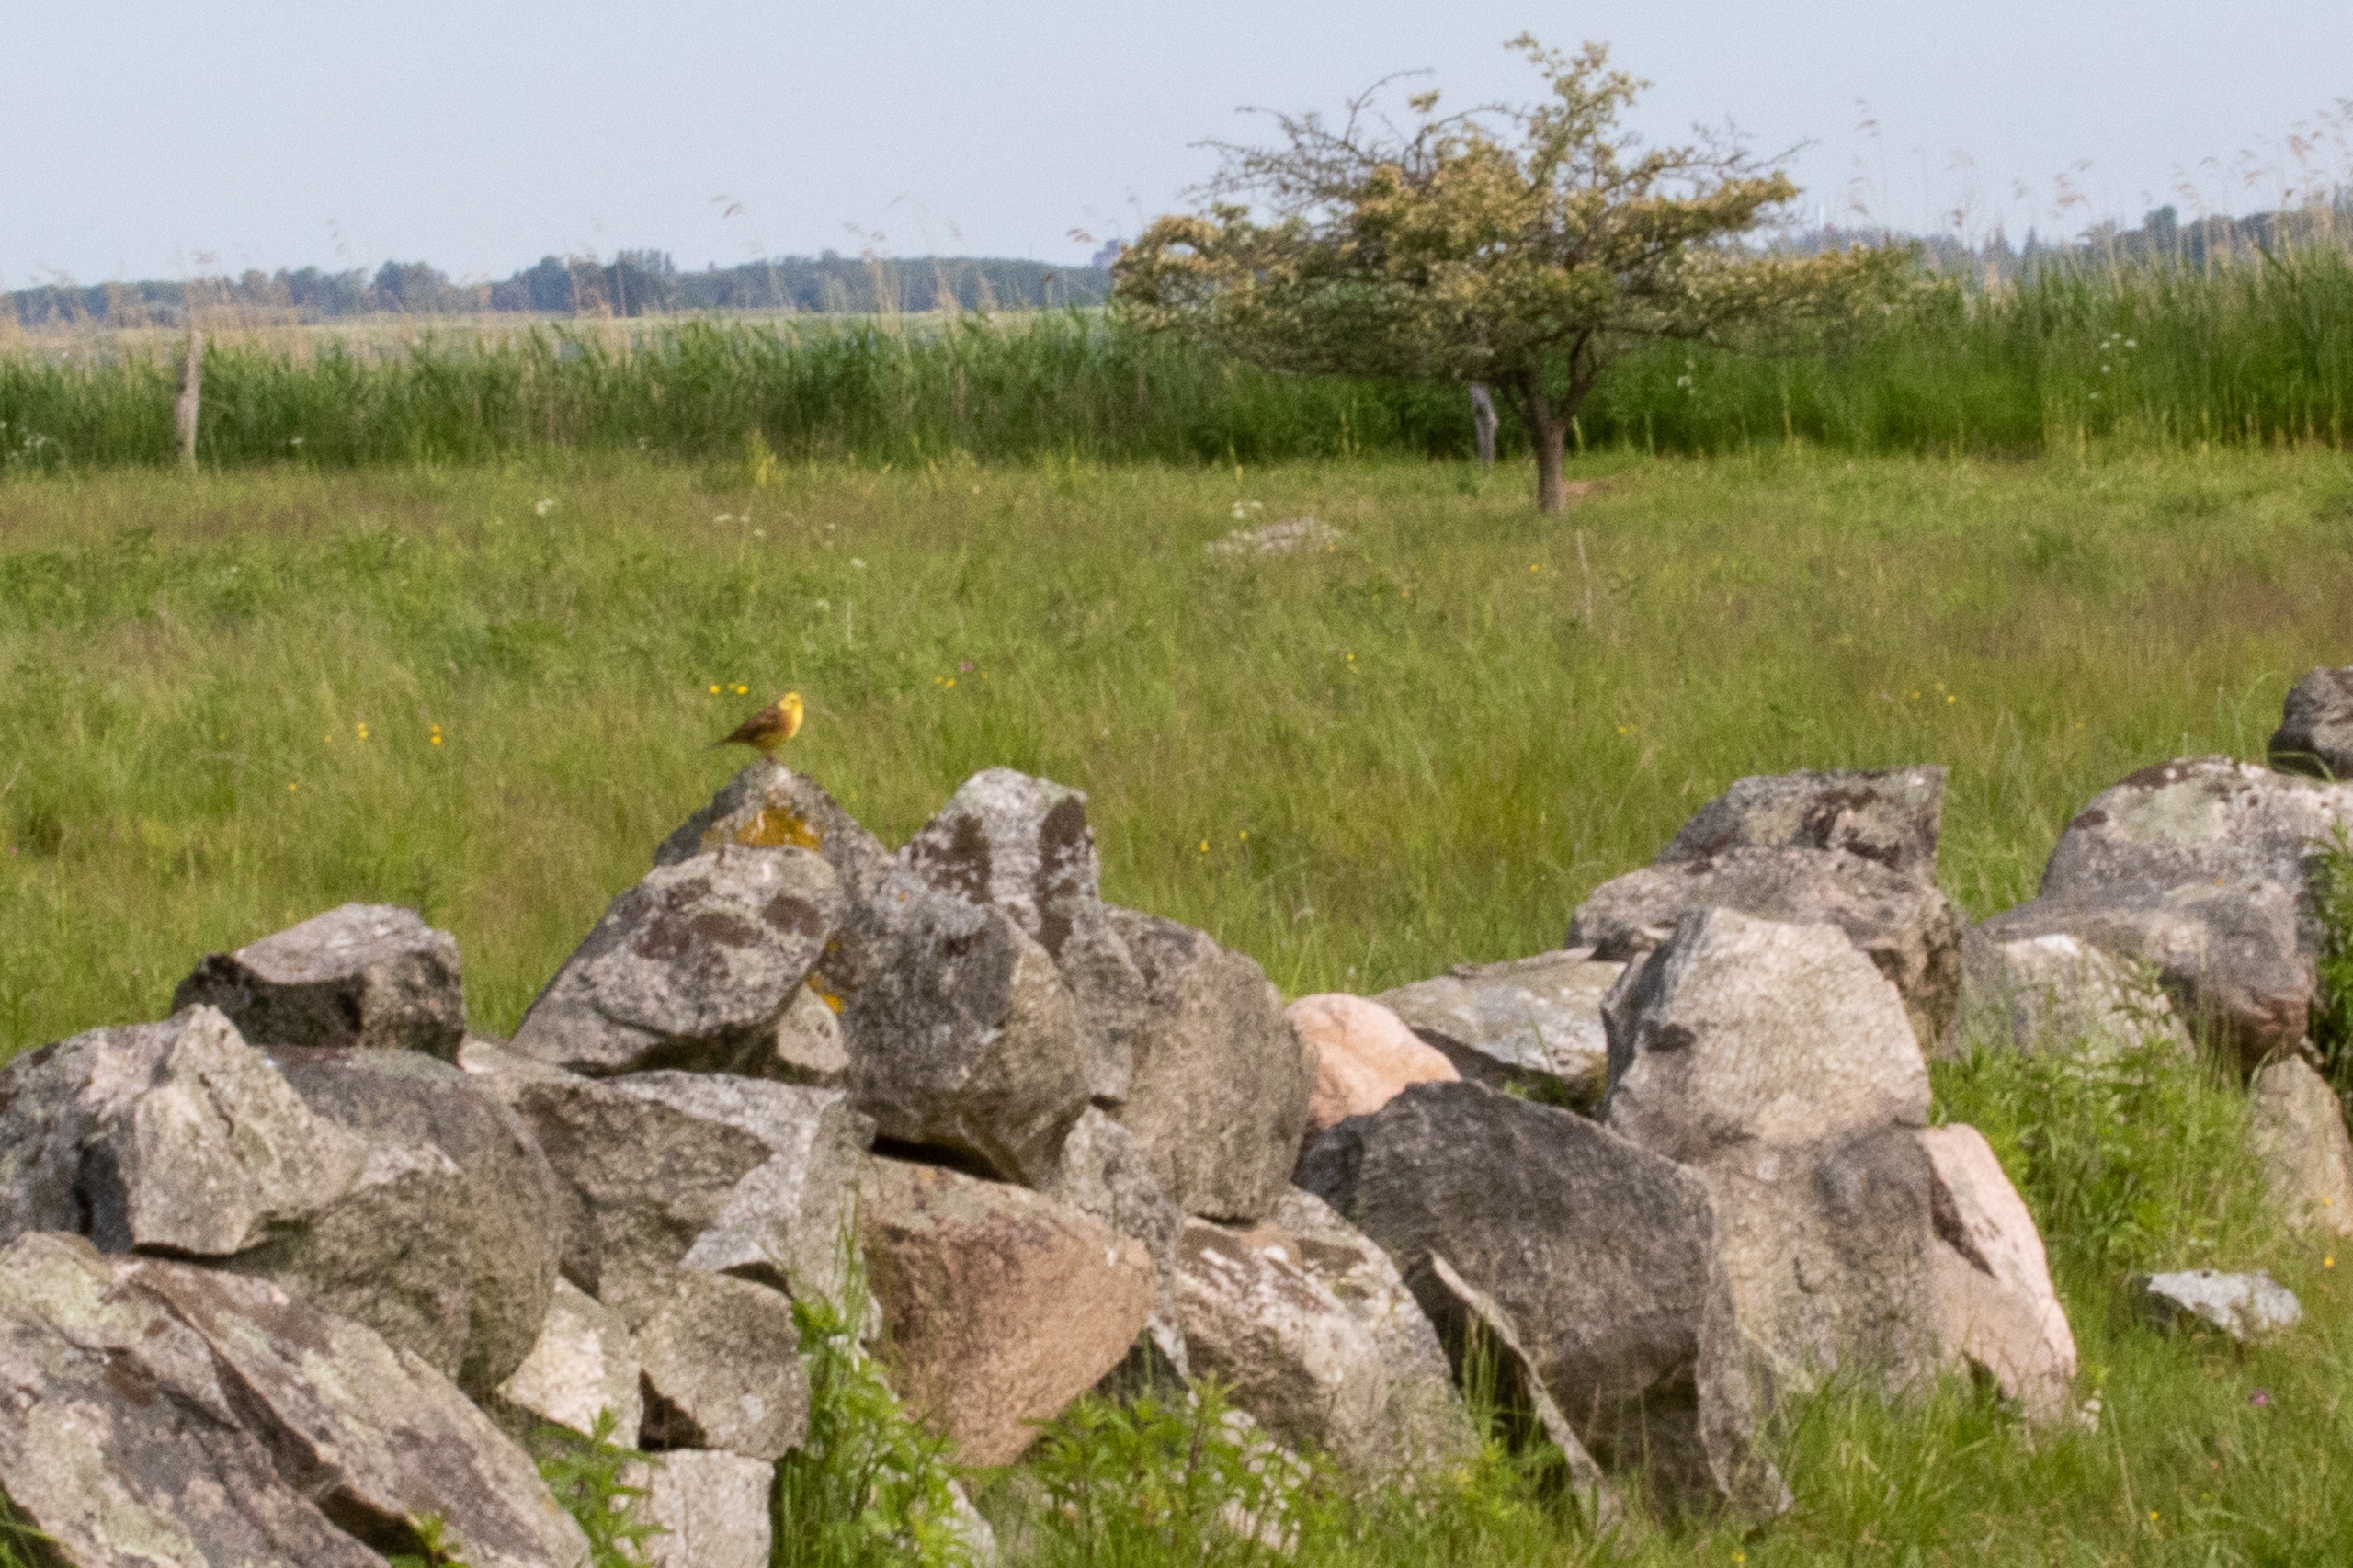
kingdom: Animalia
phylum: Chordata
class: Aves
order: Passeriformes
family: Emberizidae
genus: Emberiza
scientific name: Emberiza citrinella
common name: Gulspurv
